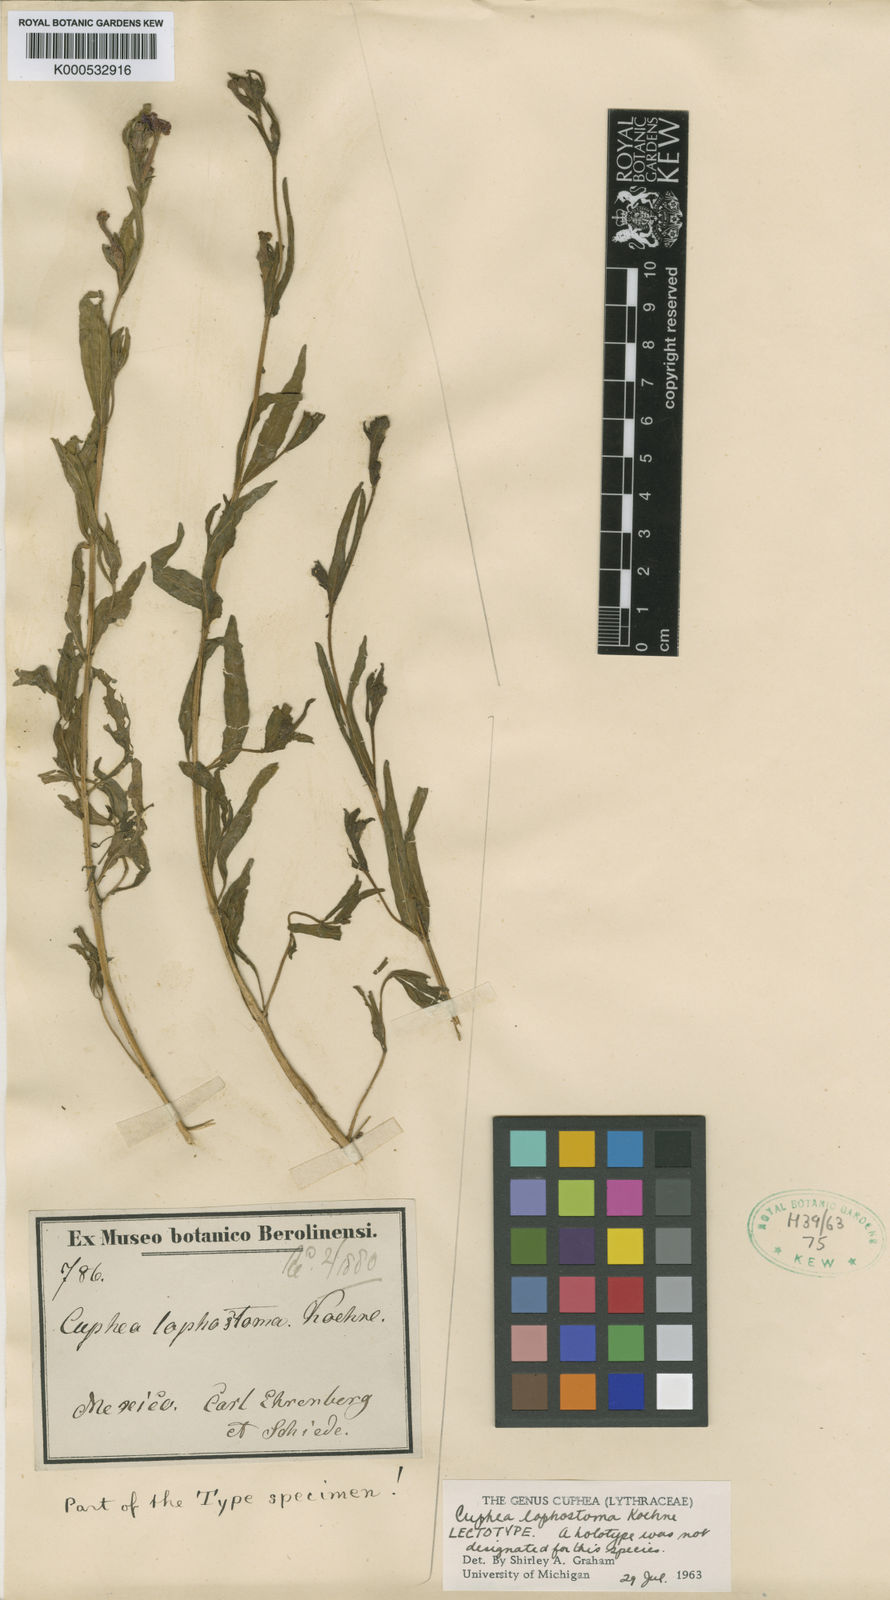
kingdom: Plantae
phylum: Tracheophyta
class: Magnoliopsida
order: Myrtales
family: Lythraceae
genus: Cuphea
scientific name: Cuphea lophostoma
